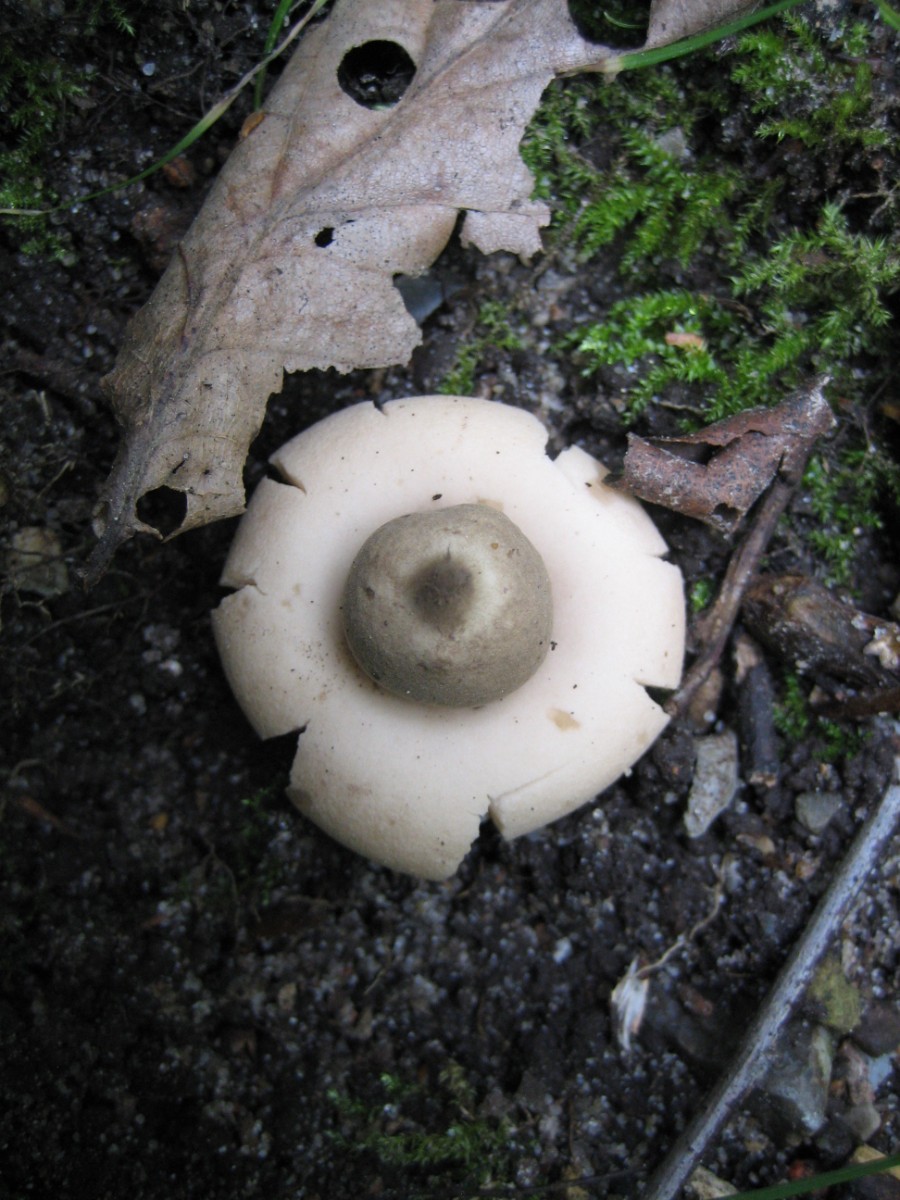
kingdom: Fungi
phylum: Basidiomycota
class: Agaricomycetes
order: Geastrales
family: Geastraceae
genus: Geastrum
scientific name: Geastrum fimbriatum
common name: frynset stjernebold
